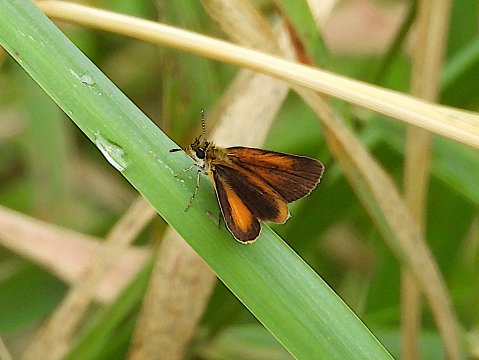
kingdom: Animalia
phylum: Arthropoda
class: Insecta
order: Lepidoptera
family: Hesperiidae
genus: Ancyloxypha
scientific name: Ancyloxypha numitor
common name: Least Skipper
